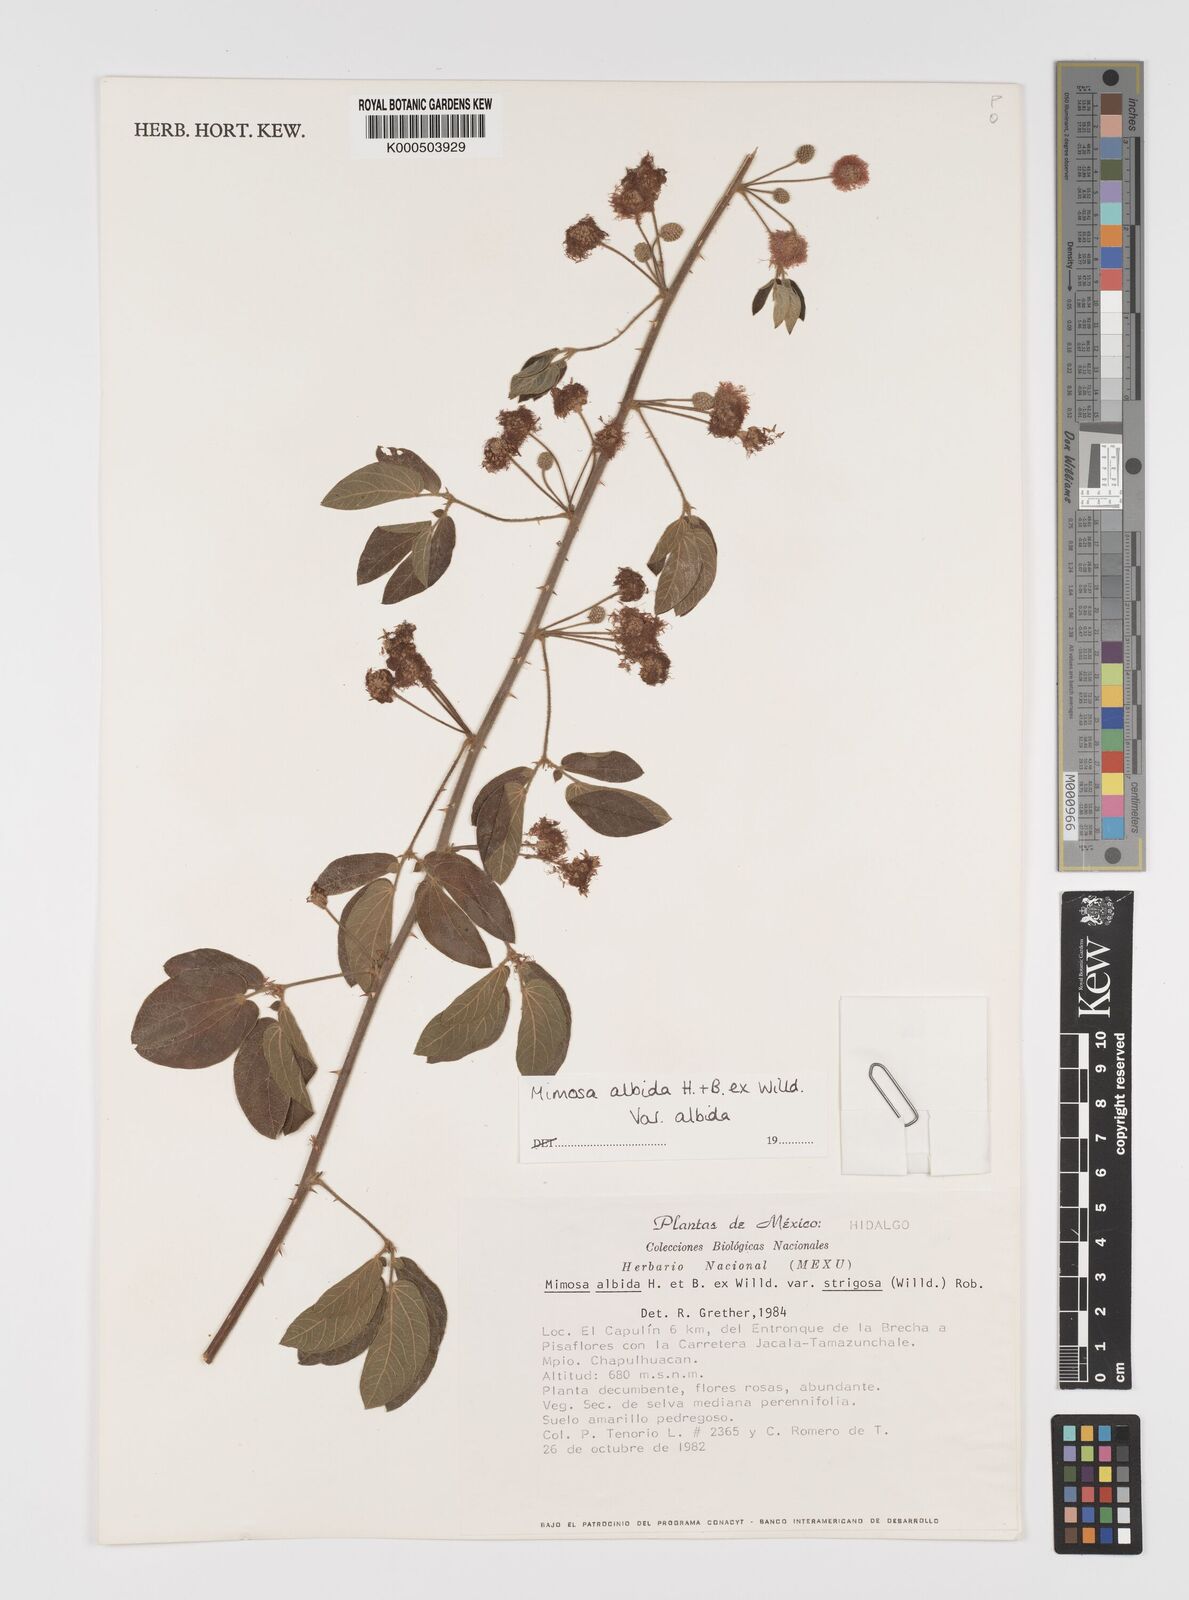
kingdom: Plantae
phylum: Tracheophyta
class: Magnoliopsida
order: Fabales
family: Fabaceae
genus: Mimosa
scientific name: Mimosa albida
